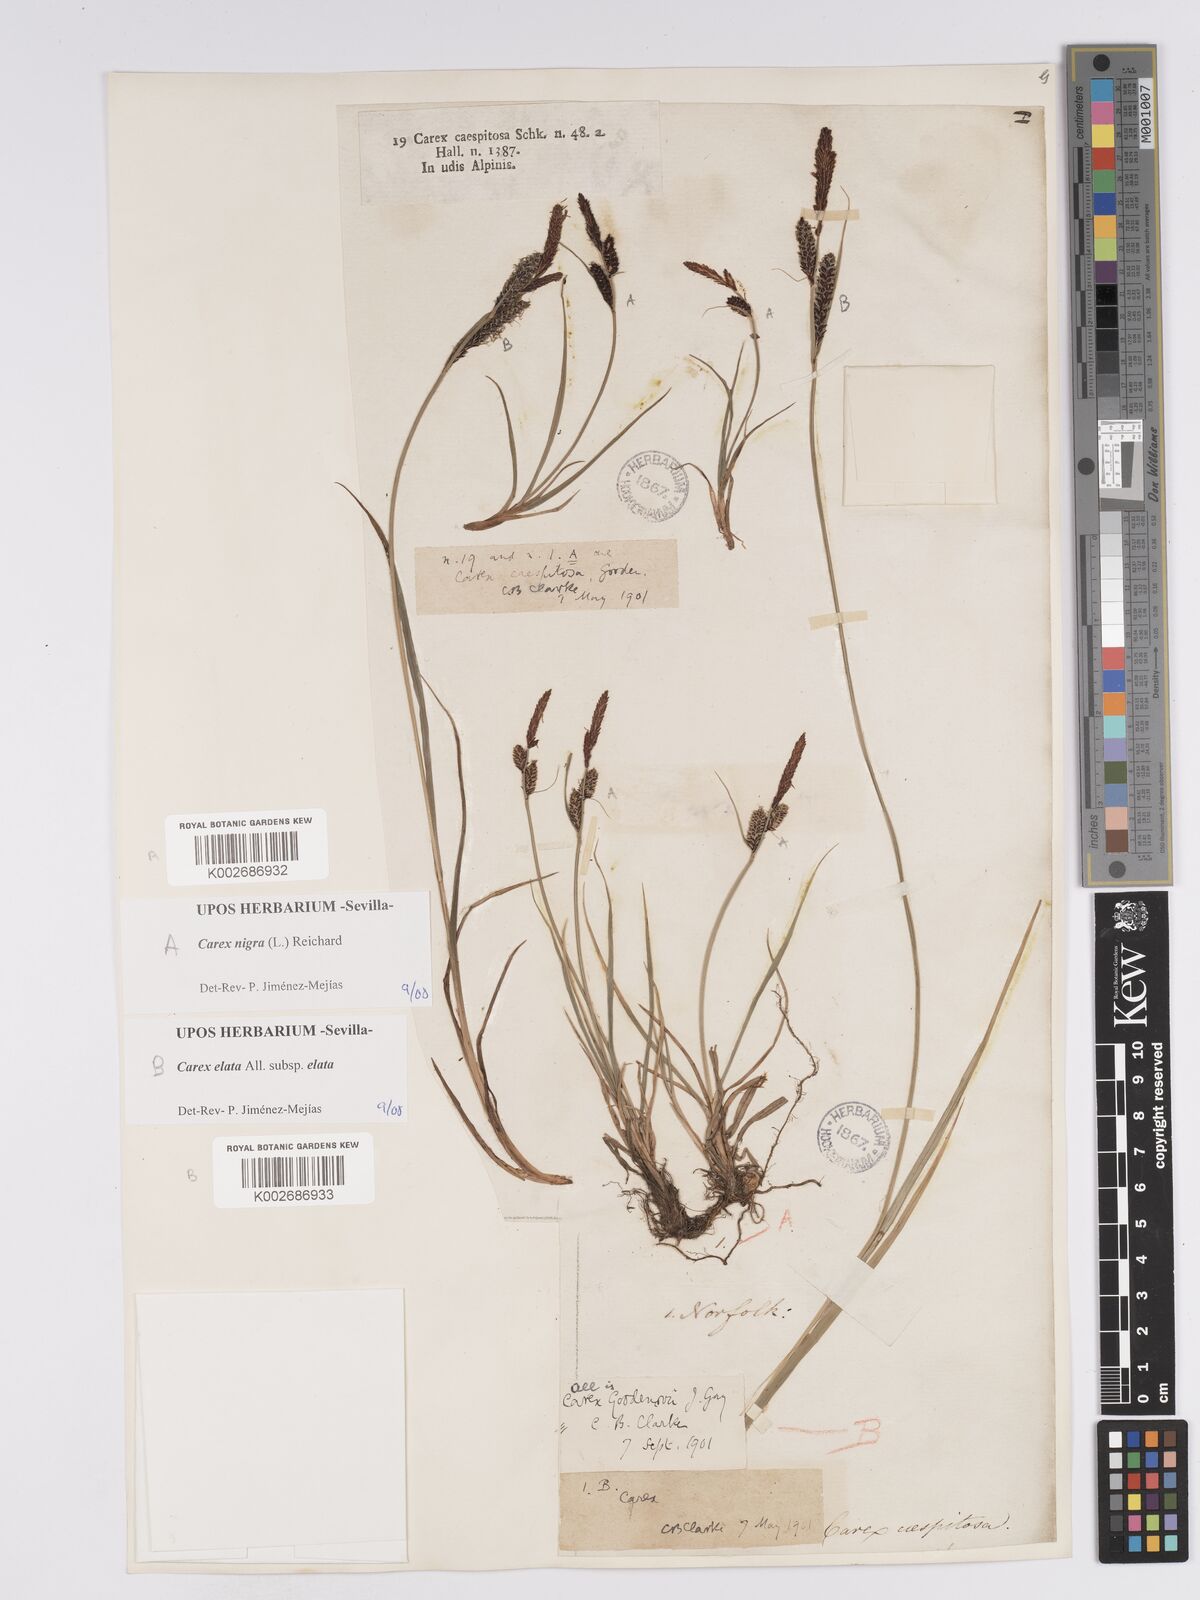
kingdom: Plantae
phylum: Tracheophyta
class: Liliopsida
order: Poales
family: Cyperaceae
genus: Carex
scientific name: Carex nigra
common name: Common sedge
